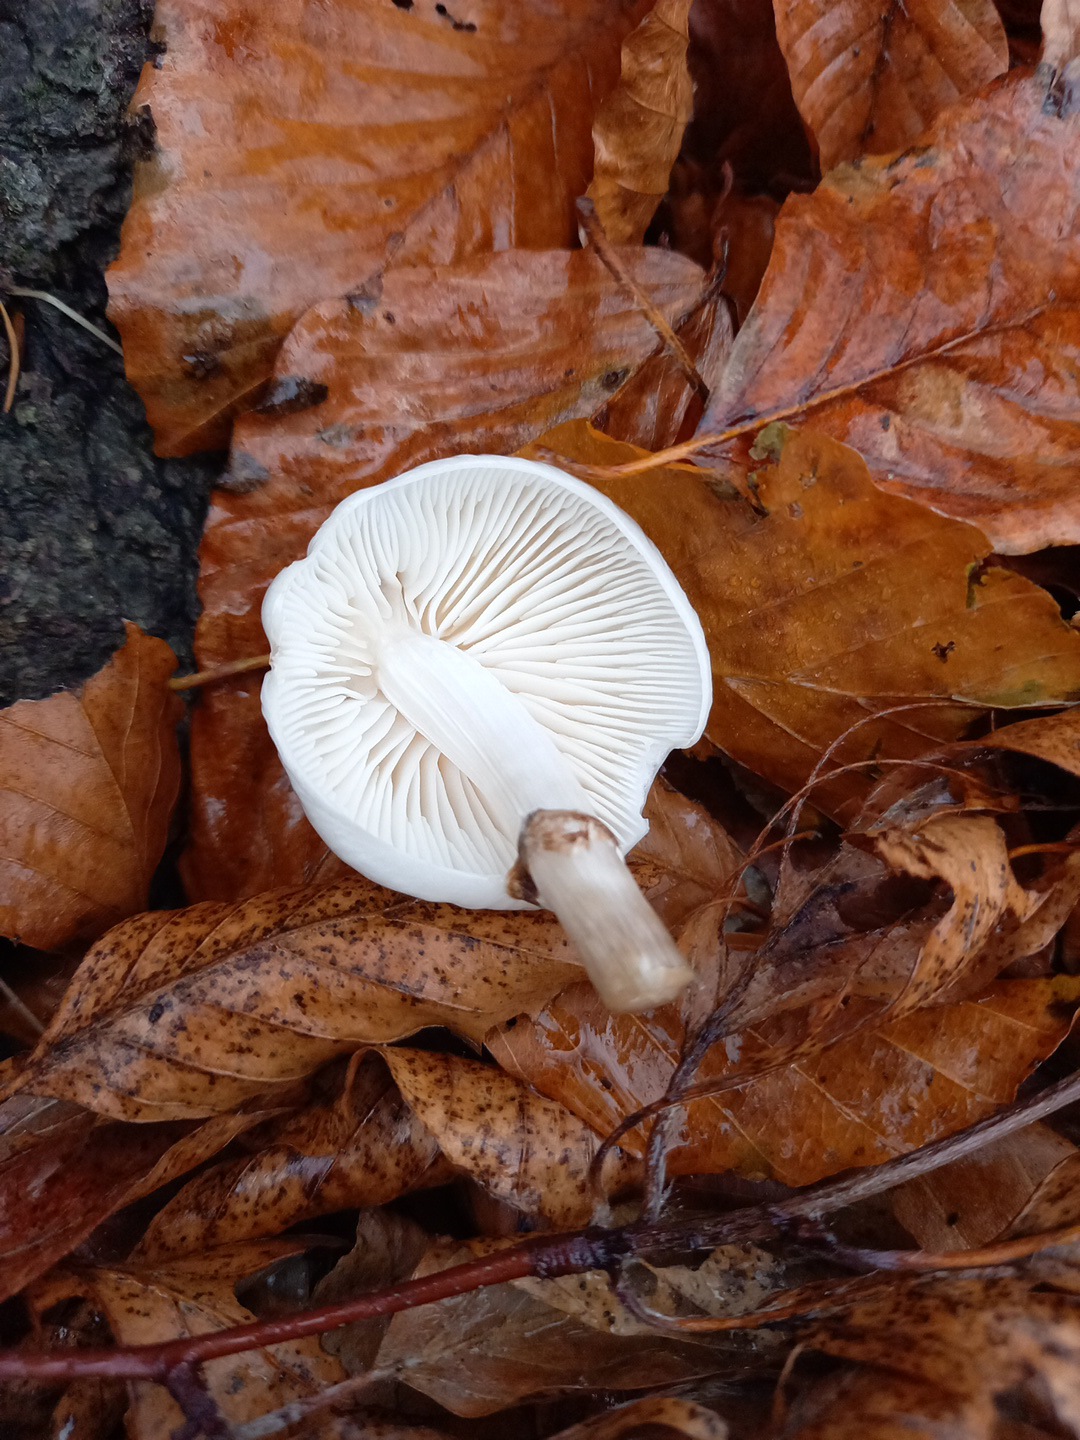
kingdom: Fungi
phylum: Basidiomycota
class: Agaricomycetes
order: Agaricales
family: Physalacriaceae
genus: Mucidula
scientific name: Mucidula mucida
